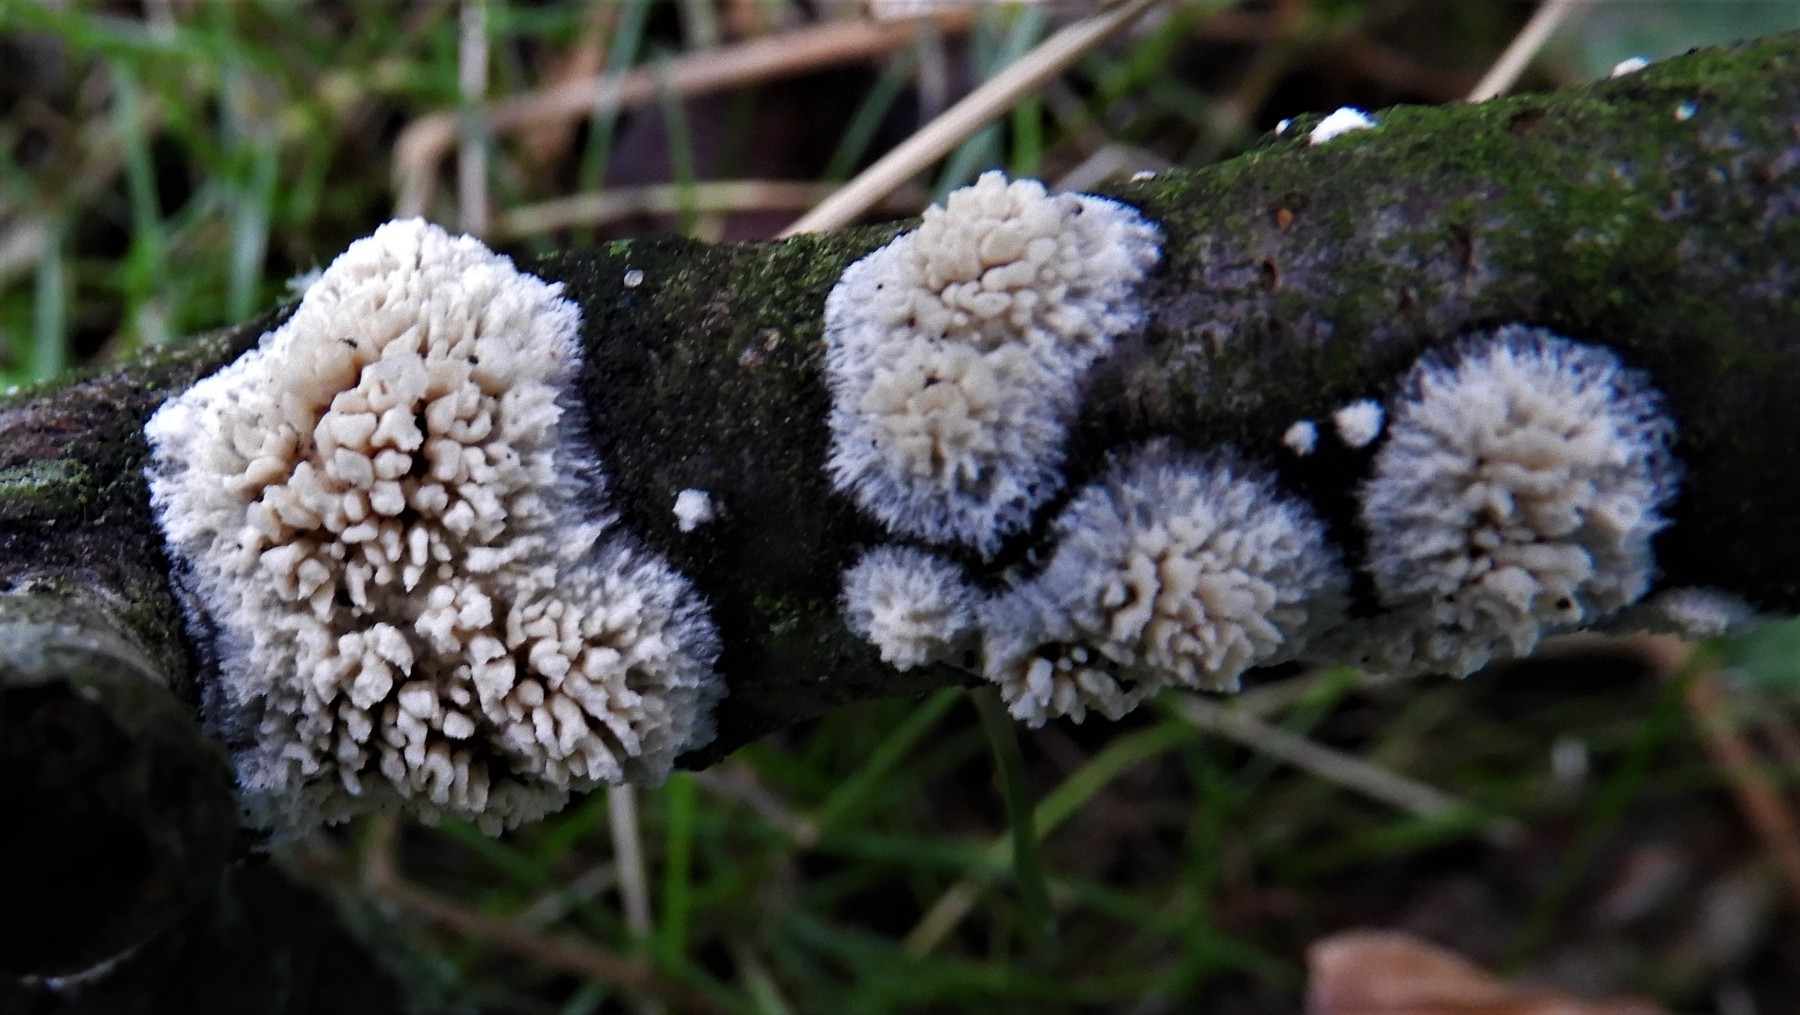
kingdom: Fungi
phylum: Basidiomycota
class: Agaricomycetes
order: Hymenochaetales
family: Schizoporaceae
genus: Xylodon
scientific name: Xylodon radula
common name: grovtandet kalkskind
